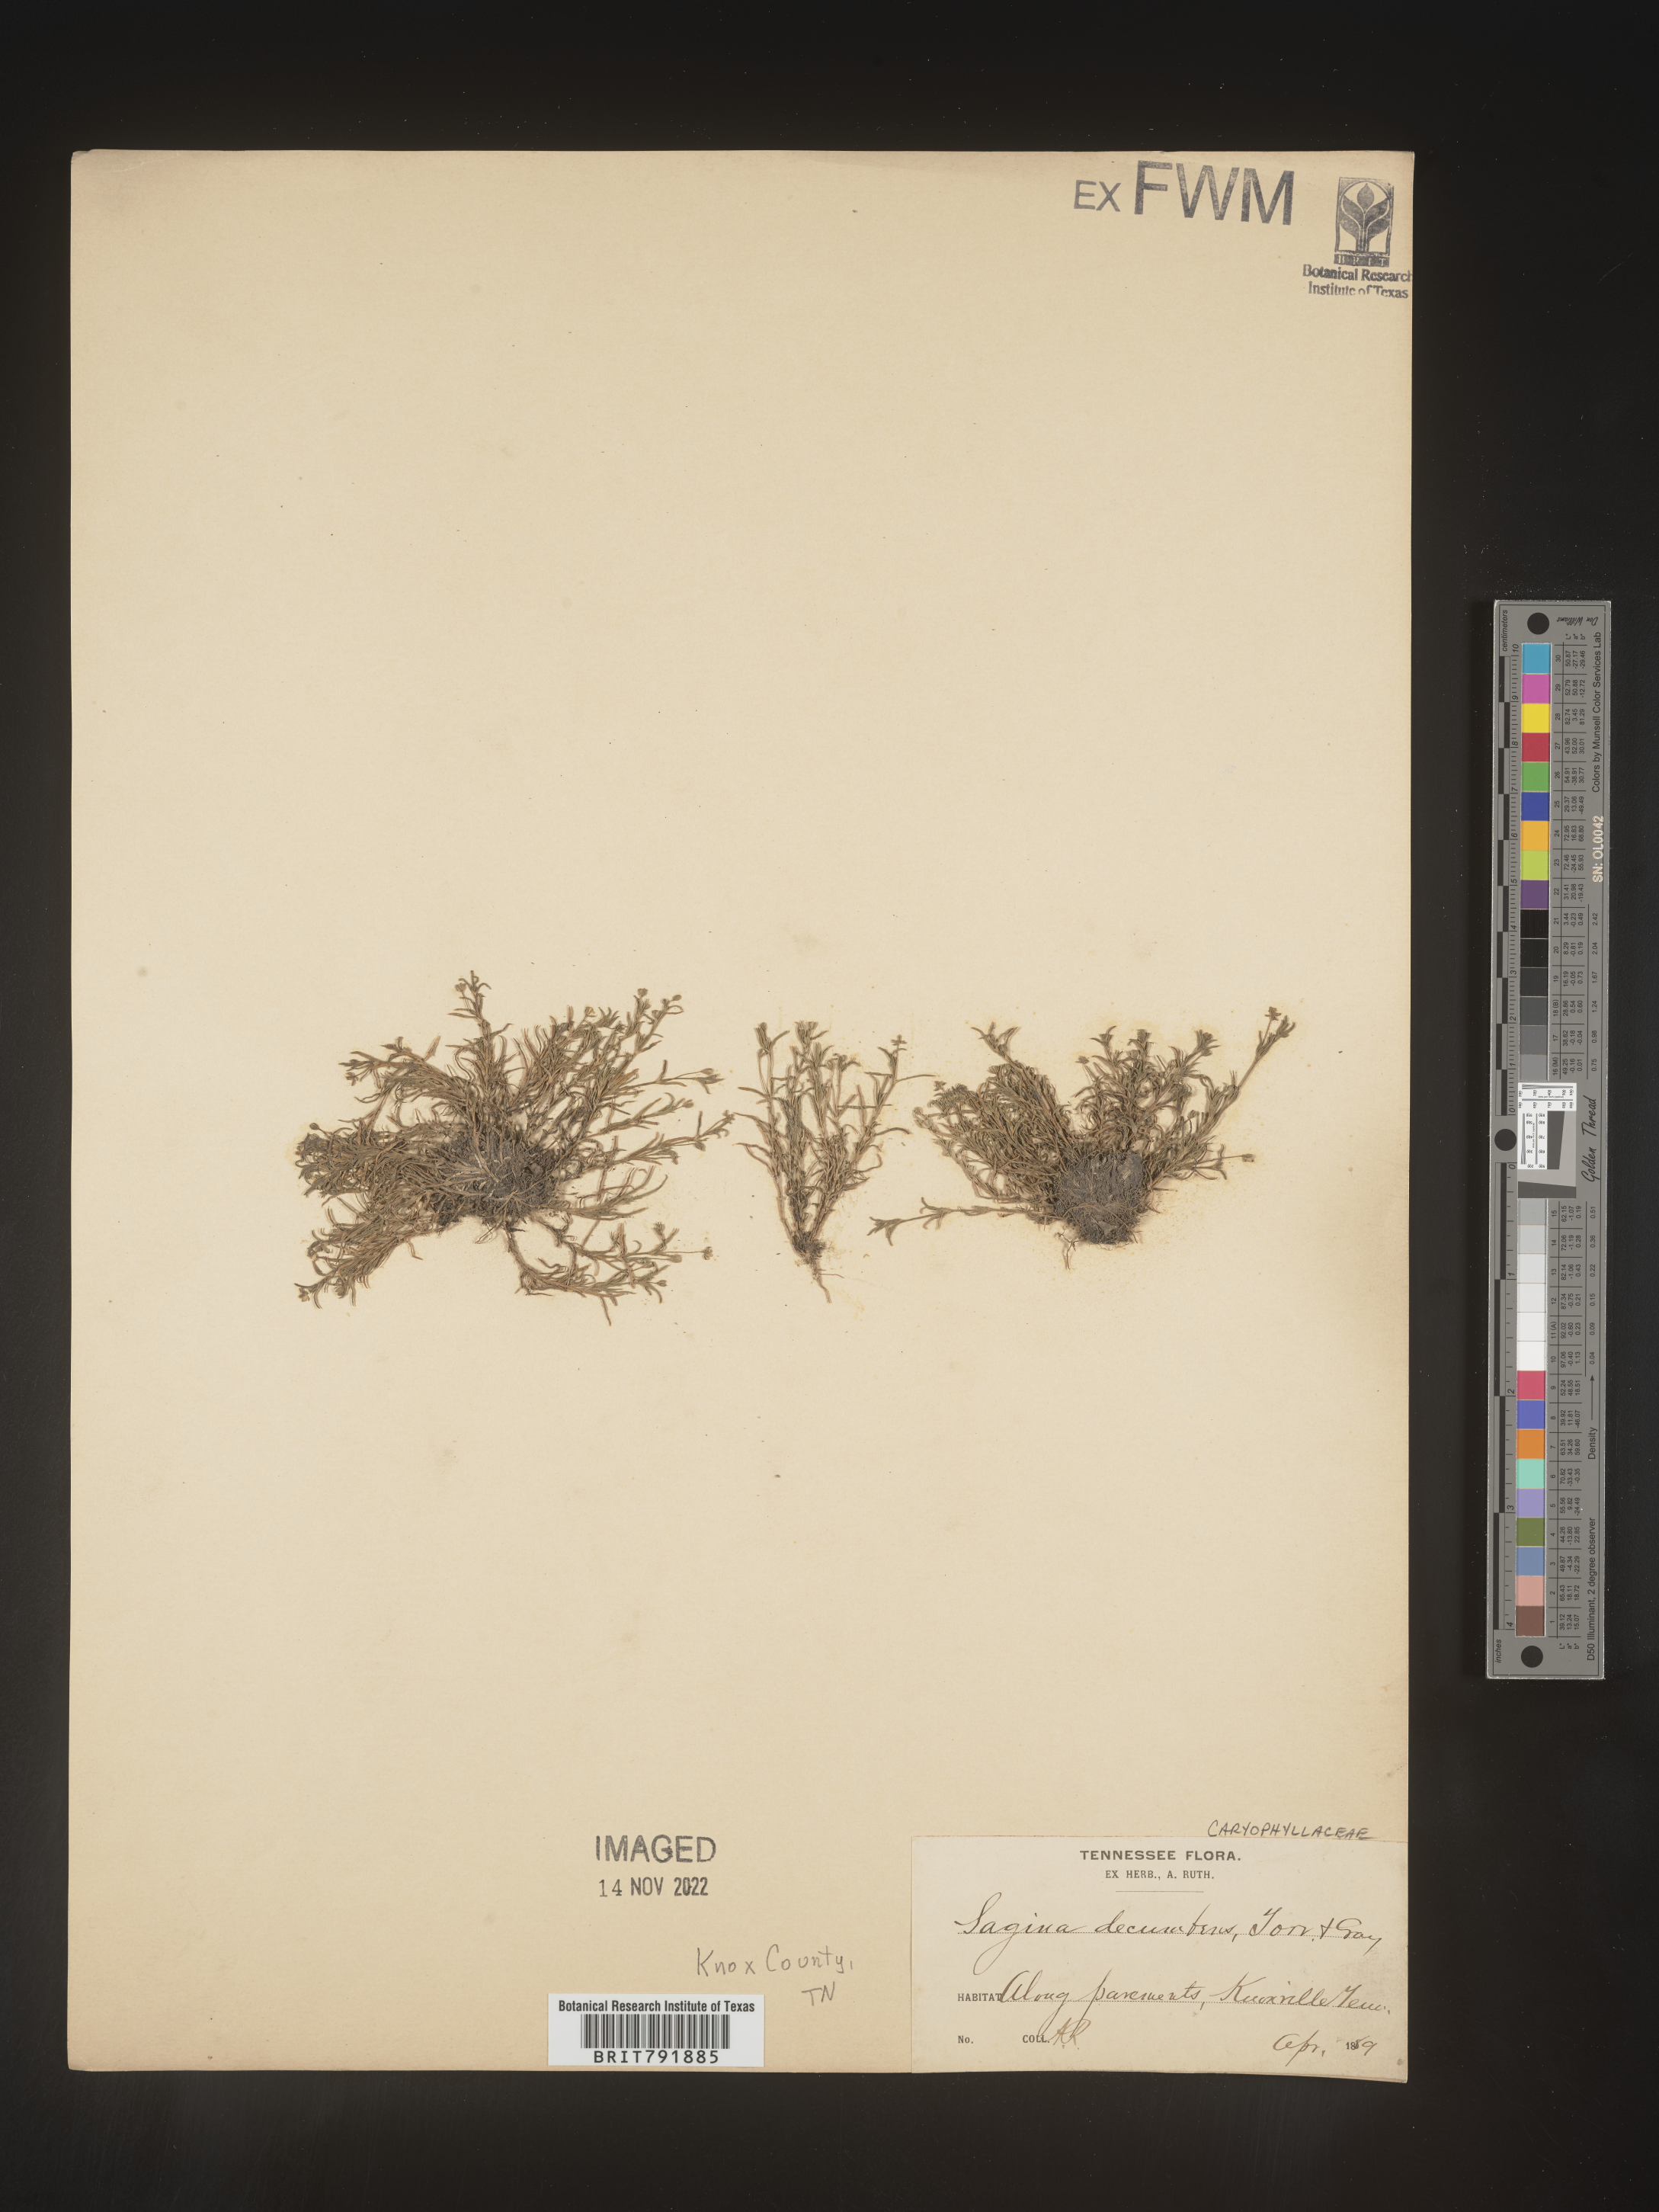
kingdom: Plantae
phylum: Tracheophyta
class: Magnoliopsida
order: Caryophyllales
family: Caryophyllaceae
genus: Sagina
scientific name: Sagina decumbens
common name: Decumbent pearlwort
